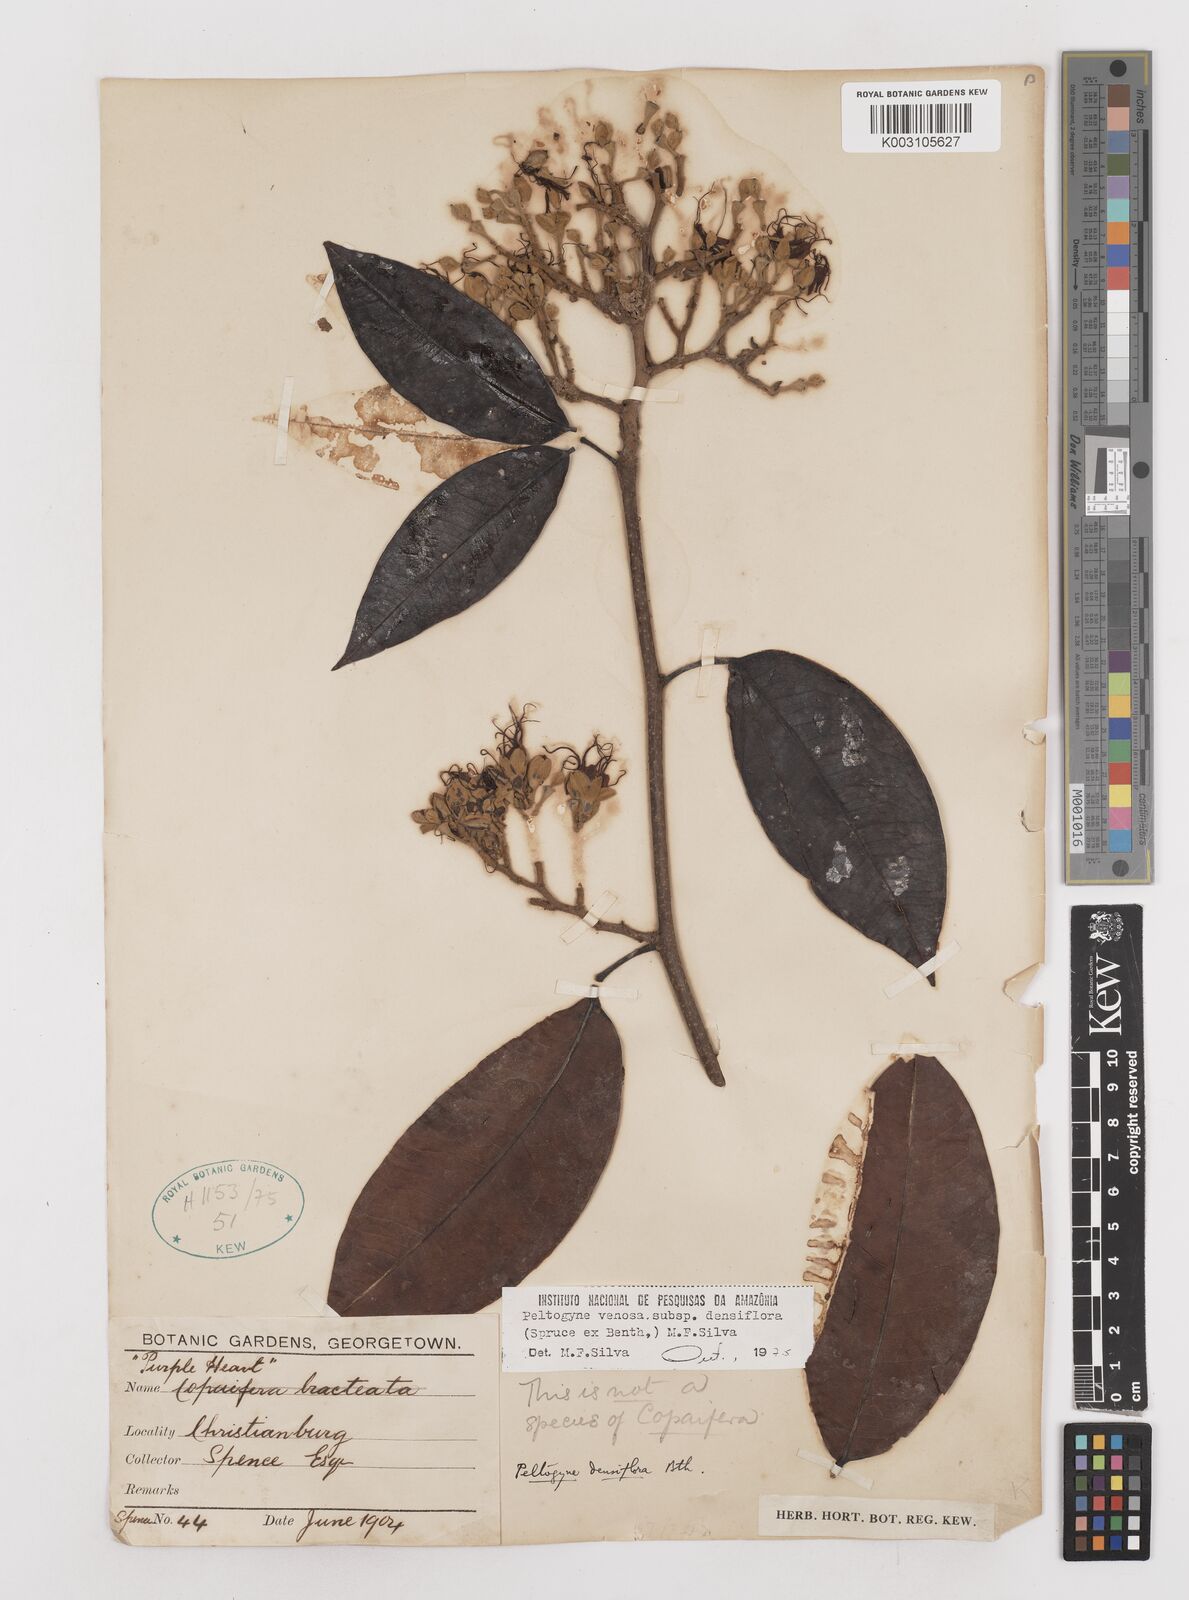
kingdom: Plantae
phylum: Tracheophyta
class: Magnoliopsida
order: Fabales
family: Fabaceae
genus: Peltogyne
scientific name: Peltogyne venosa
